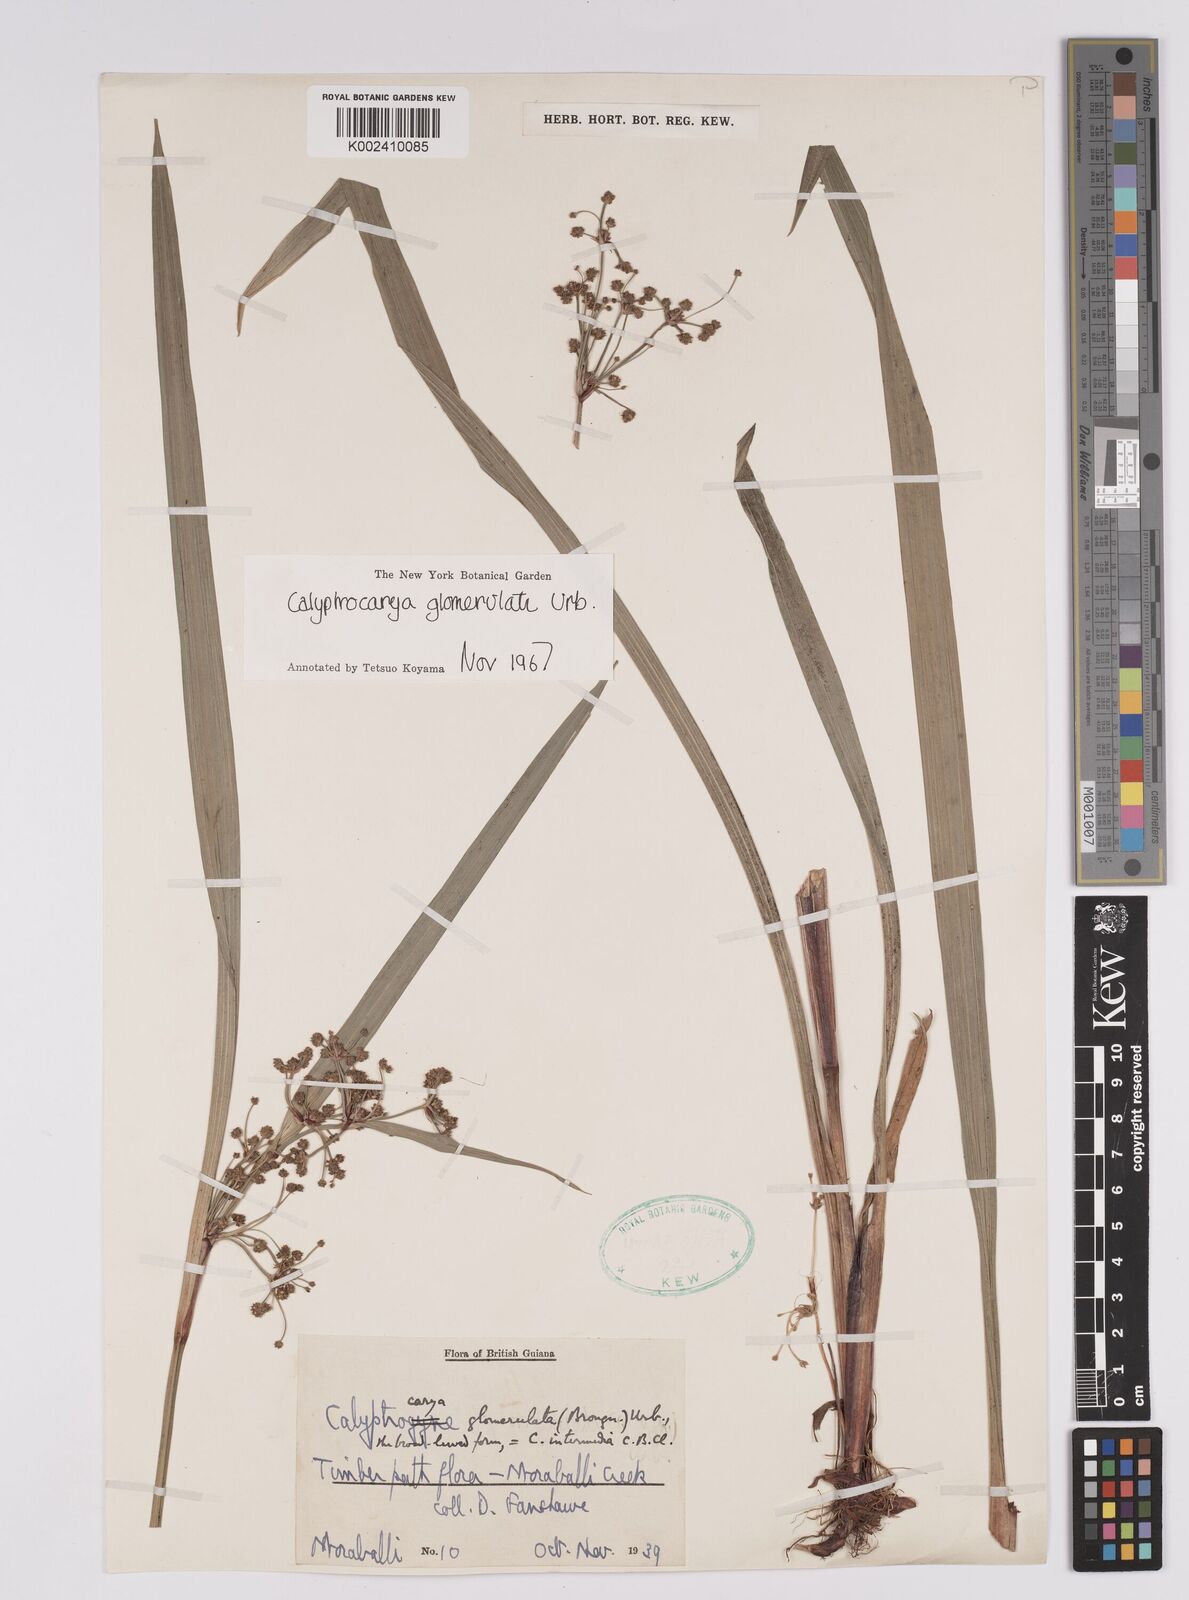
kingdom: Plantae
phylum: Tracheophyta
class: Liliopsida
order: Poales
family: Cyperaceae
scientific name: Cyperaceae
